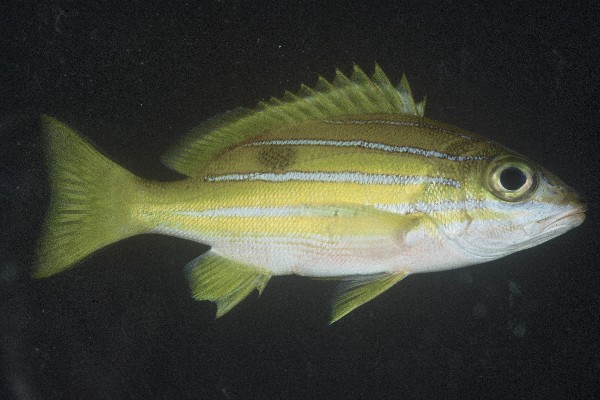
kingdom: Animalia
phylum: Chordata
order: Perciformes
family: Lutjanidae
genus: Lutjanus
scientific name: Lutjanus kasmira
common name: Common bluestripe snapper
